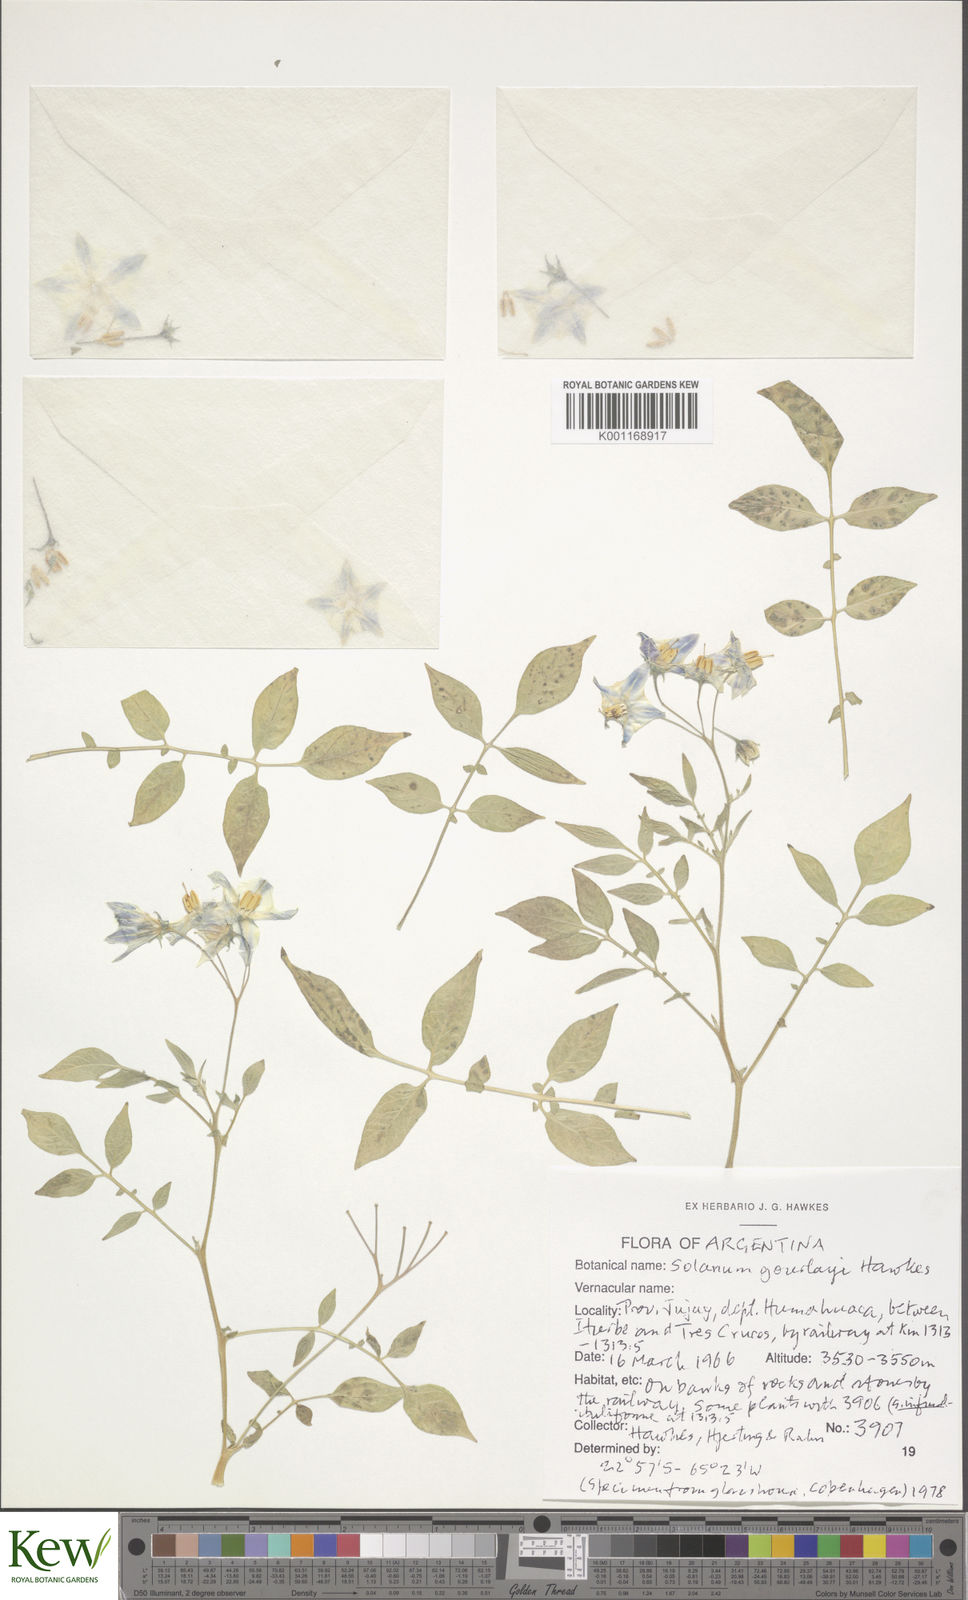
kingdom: Plantae
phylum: Tracheophyta
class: Magnoliopsida
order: Solanales
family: Solanaceae
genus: Solanum
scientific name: Solanum brevicaule
